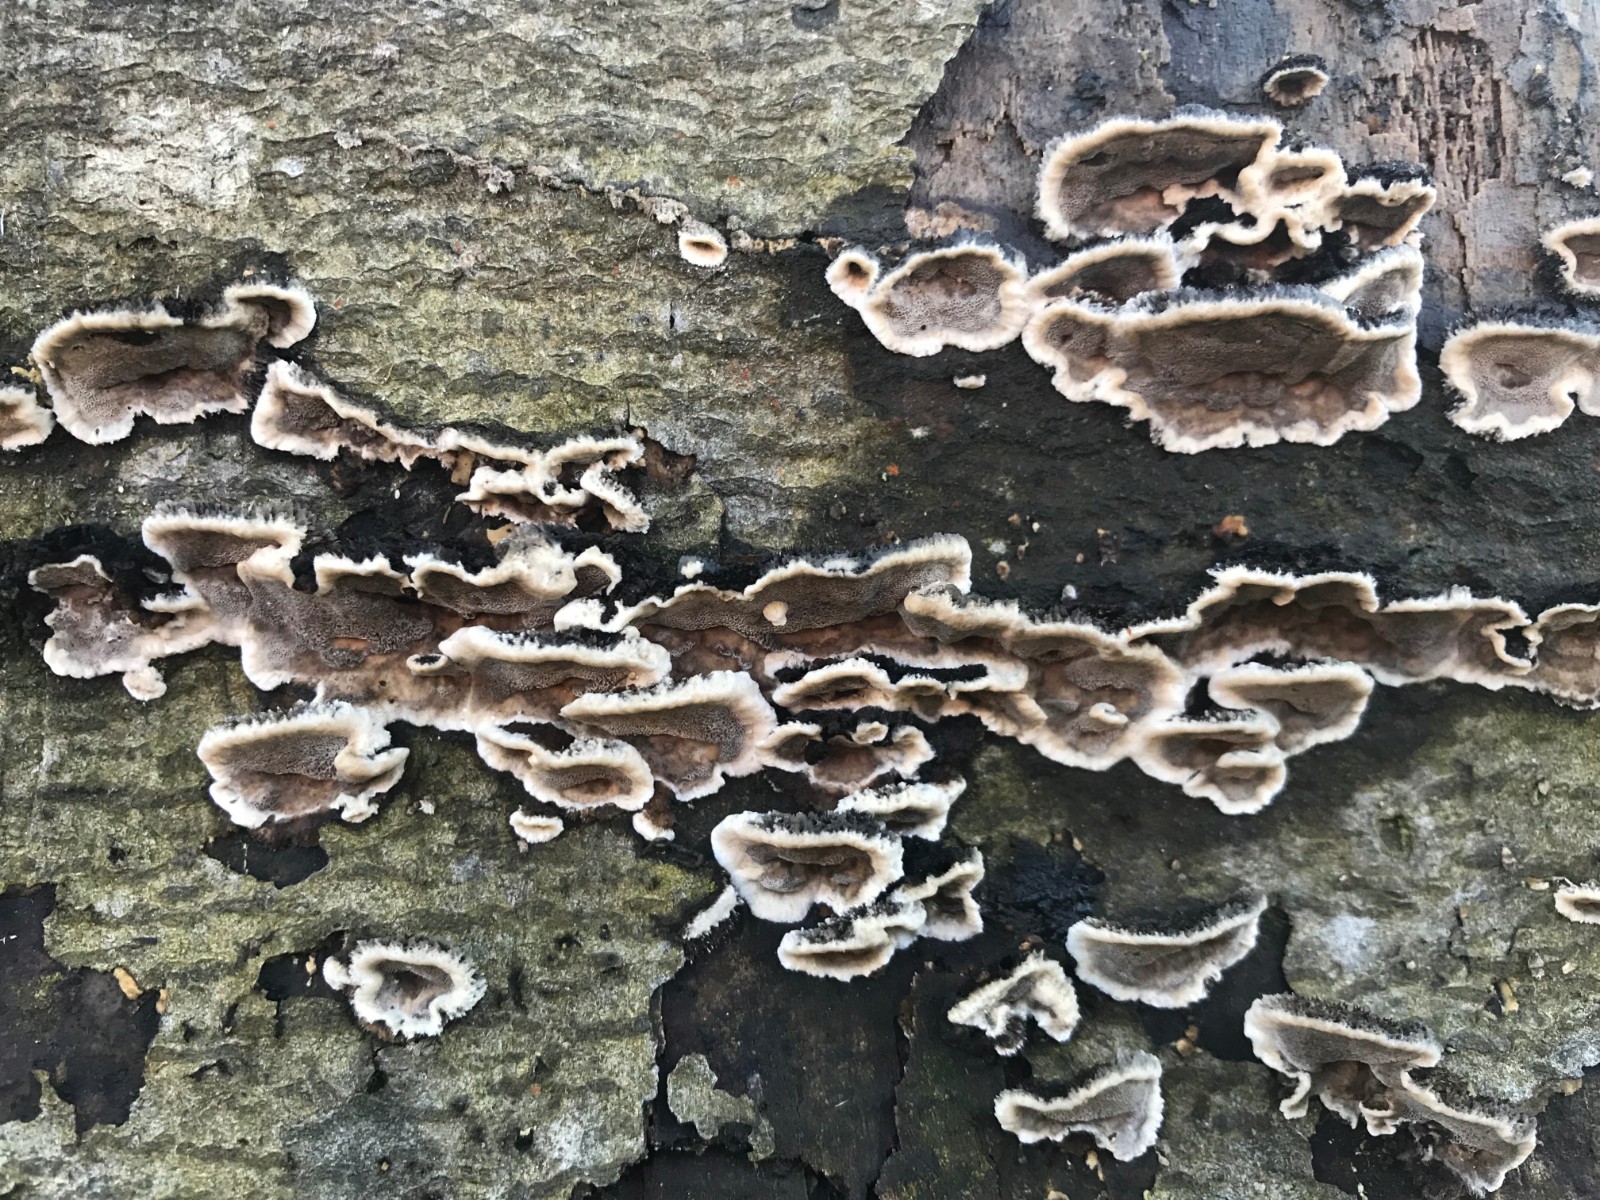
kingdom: Fungi
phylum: Basidiomycota
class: Agaricomycetes
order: Polyporales
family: Phanerochaetaceae
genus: Bjerkandera
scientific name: Bjerkandera adusta
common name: sveden sodporesvamp
